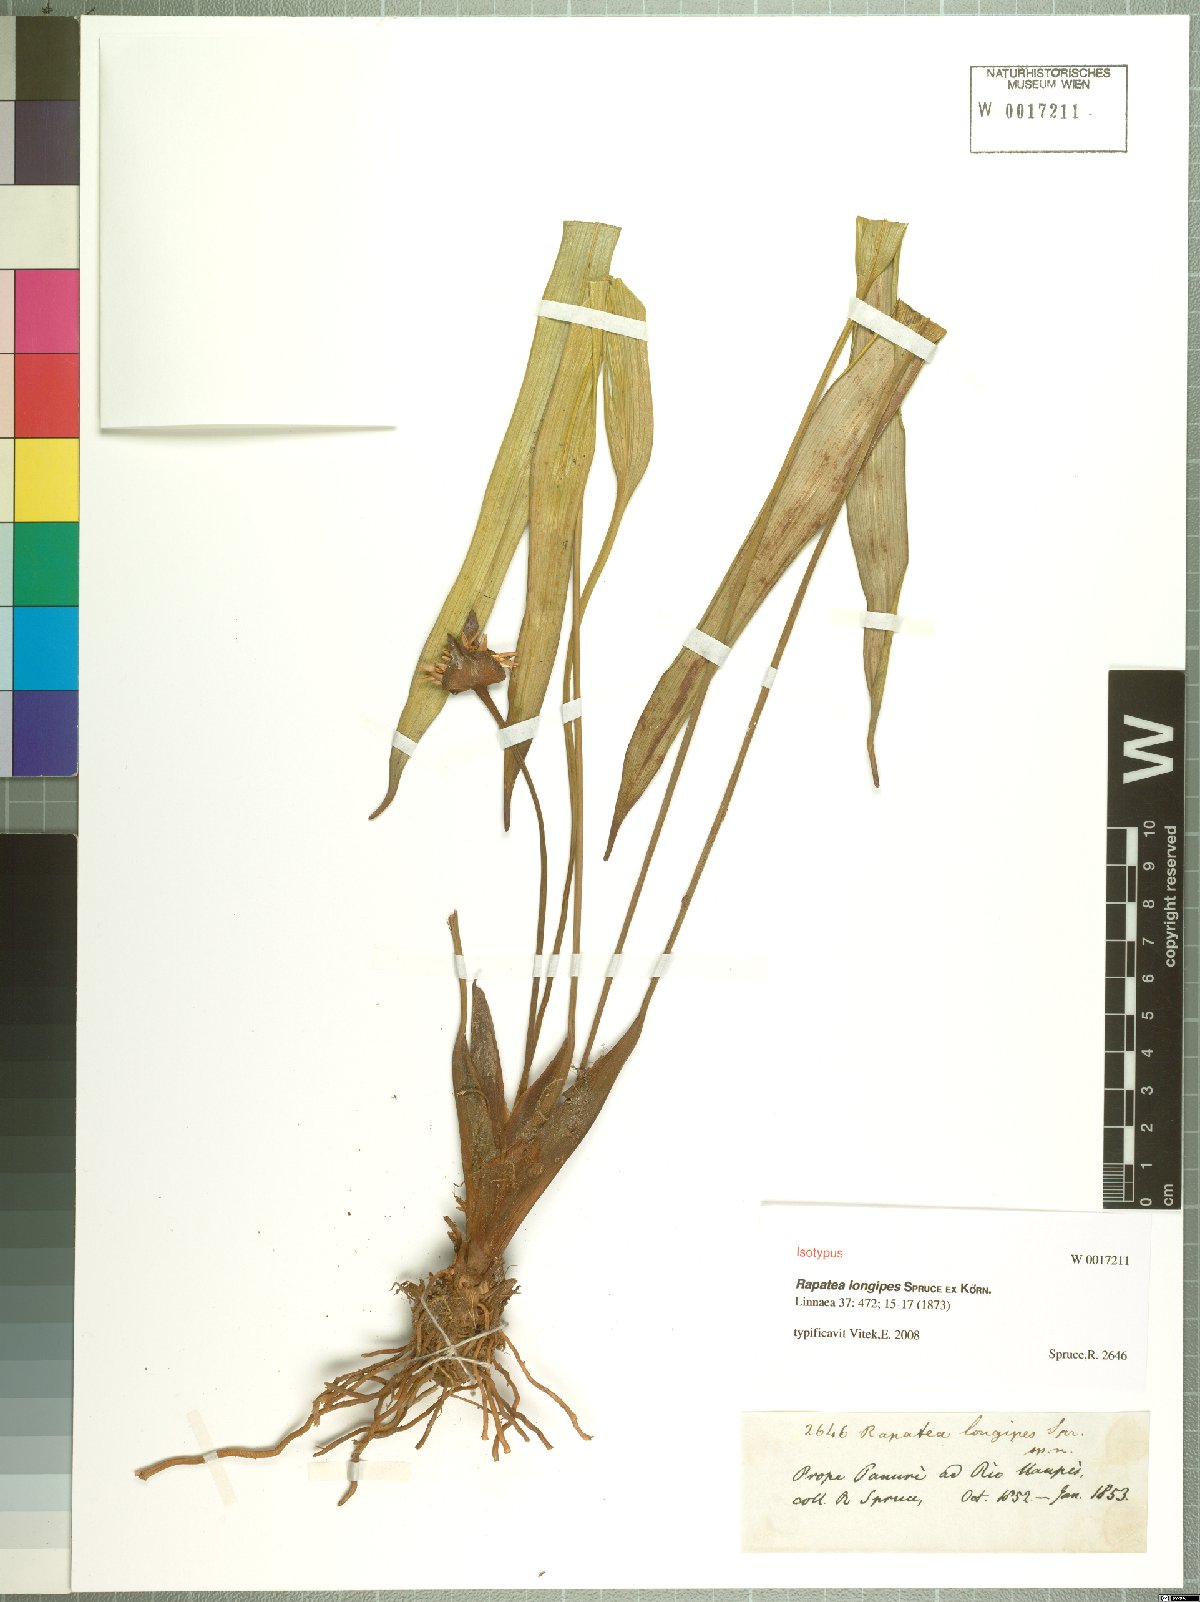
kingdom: Plantae
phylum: Tracheophyta
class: Liliopsida
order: Poales
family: Rapateaceae
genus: Rapatea
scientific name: Rapatea longipes
